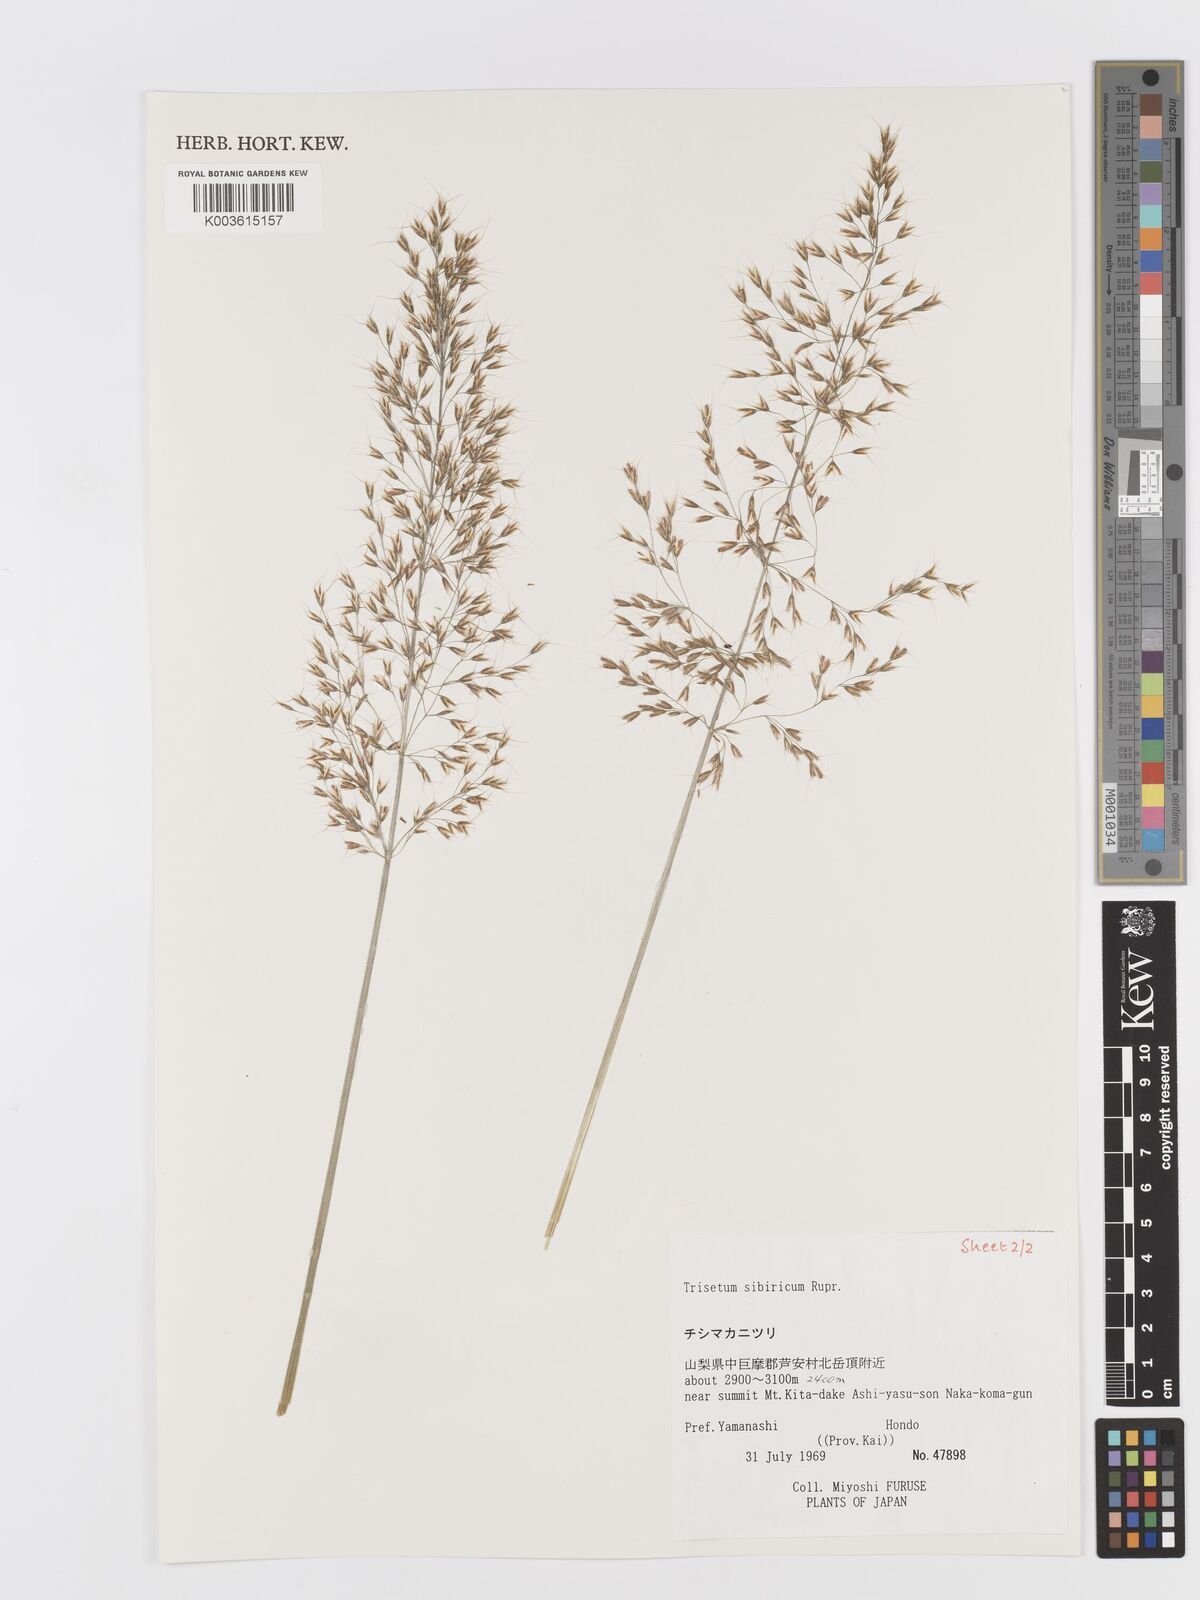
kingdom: Plantae
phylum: Tracheophyta
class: Liliopsida
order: Poales
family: Poaceae
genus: Sibirotrisetum
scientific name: Sibirotrisetum sibiricum
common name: Siberian false oat
